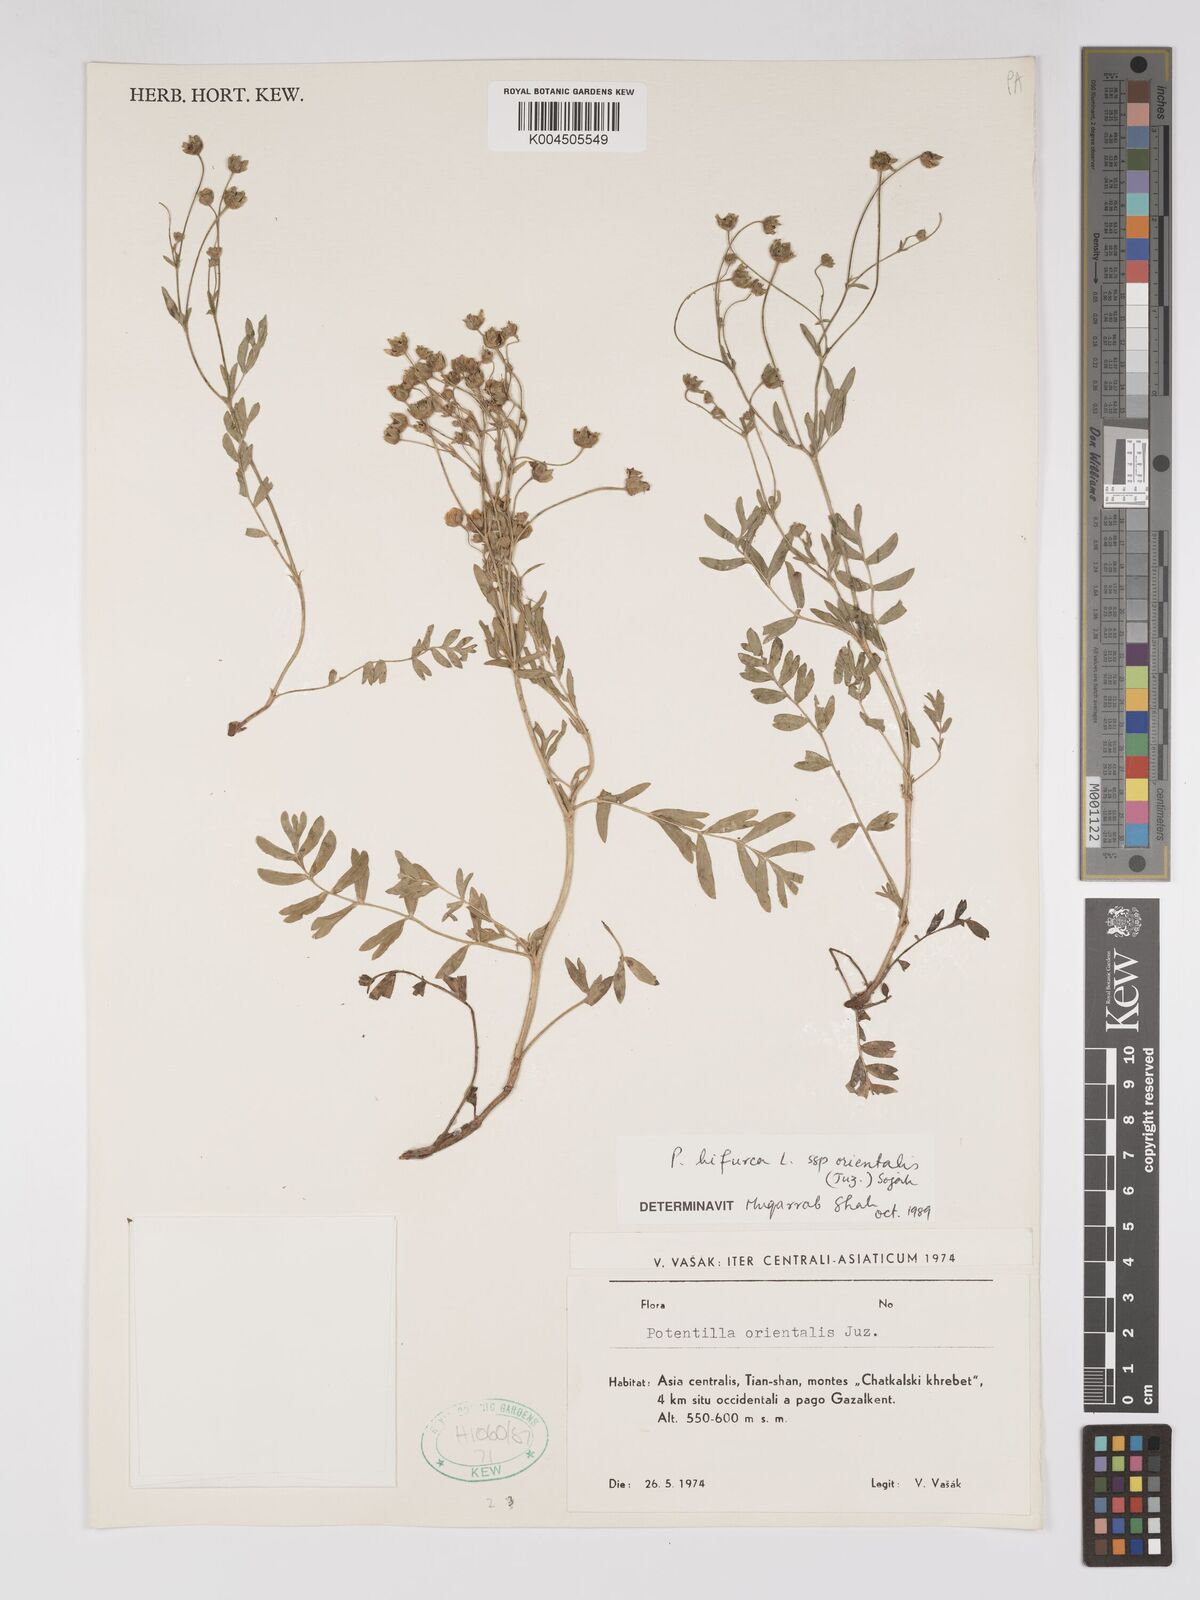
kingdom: Plantae
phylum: Tracheophyta
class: Magnoliopsida
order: Rosales
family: Rosaceae
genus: Sibbaldianthe
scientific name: Sibbaldianthe orientalis
